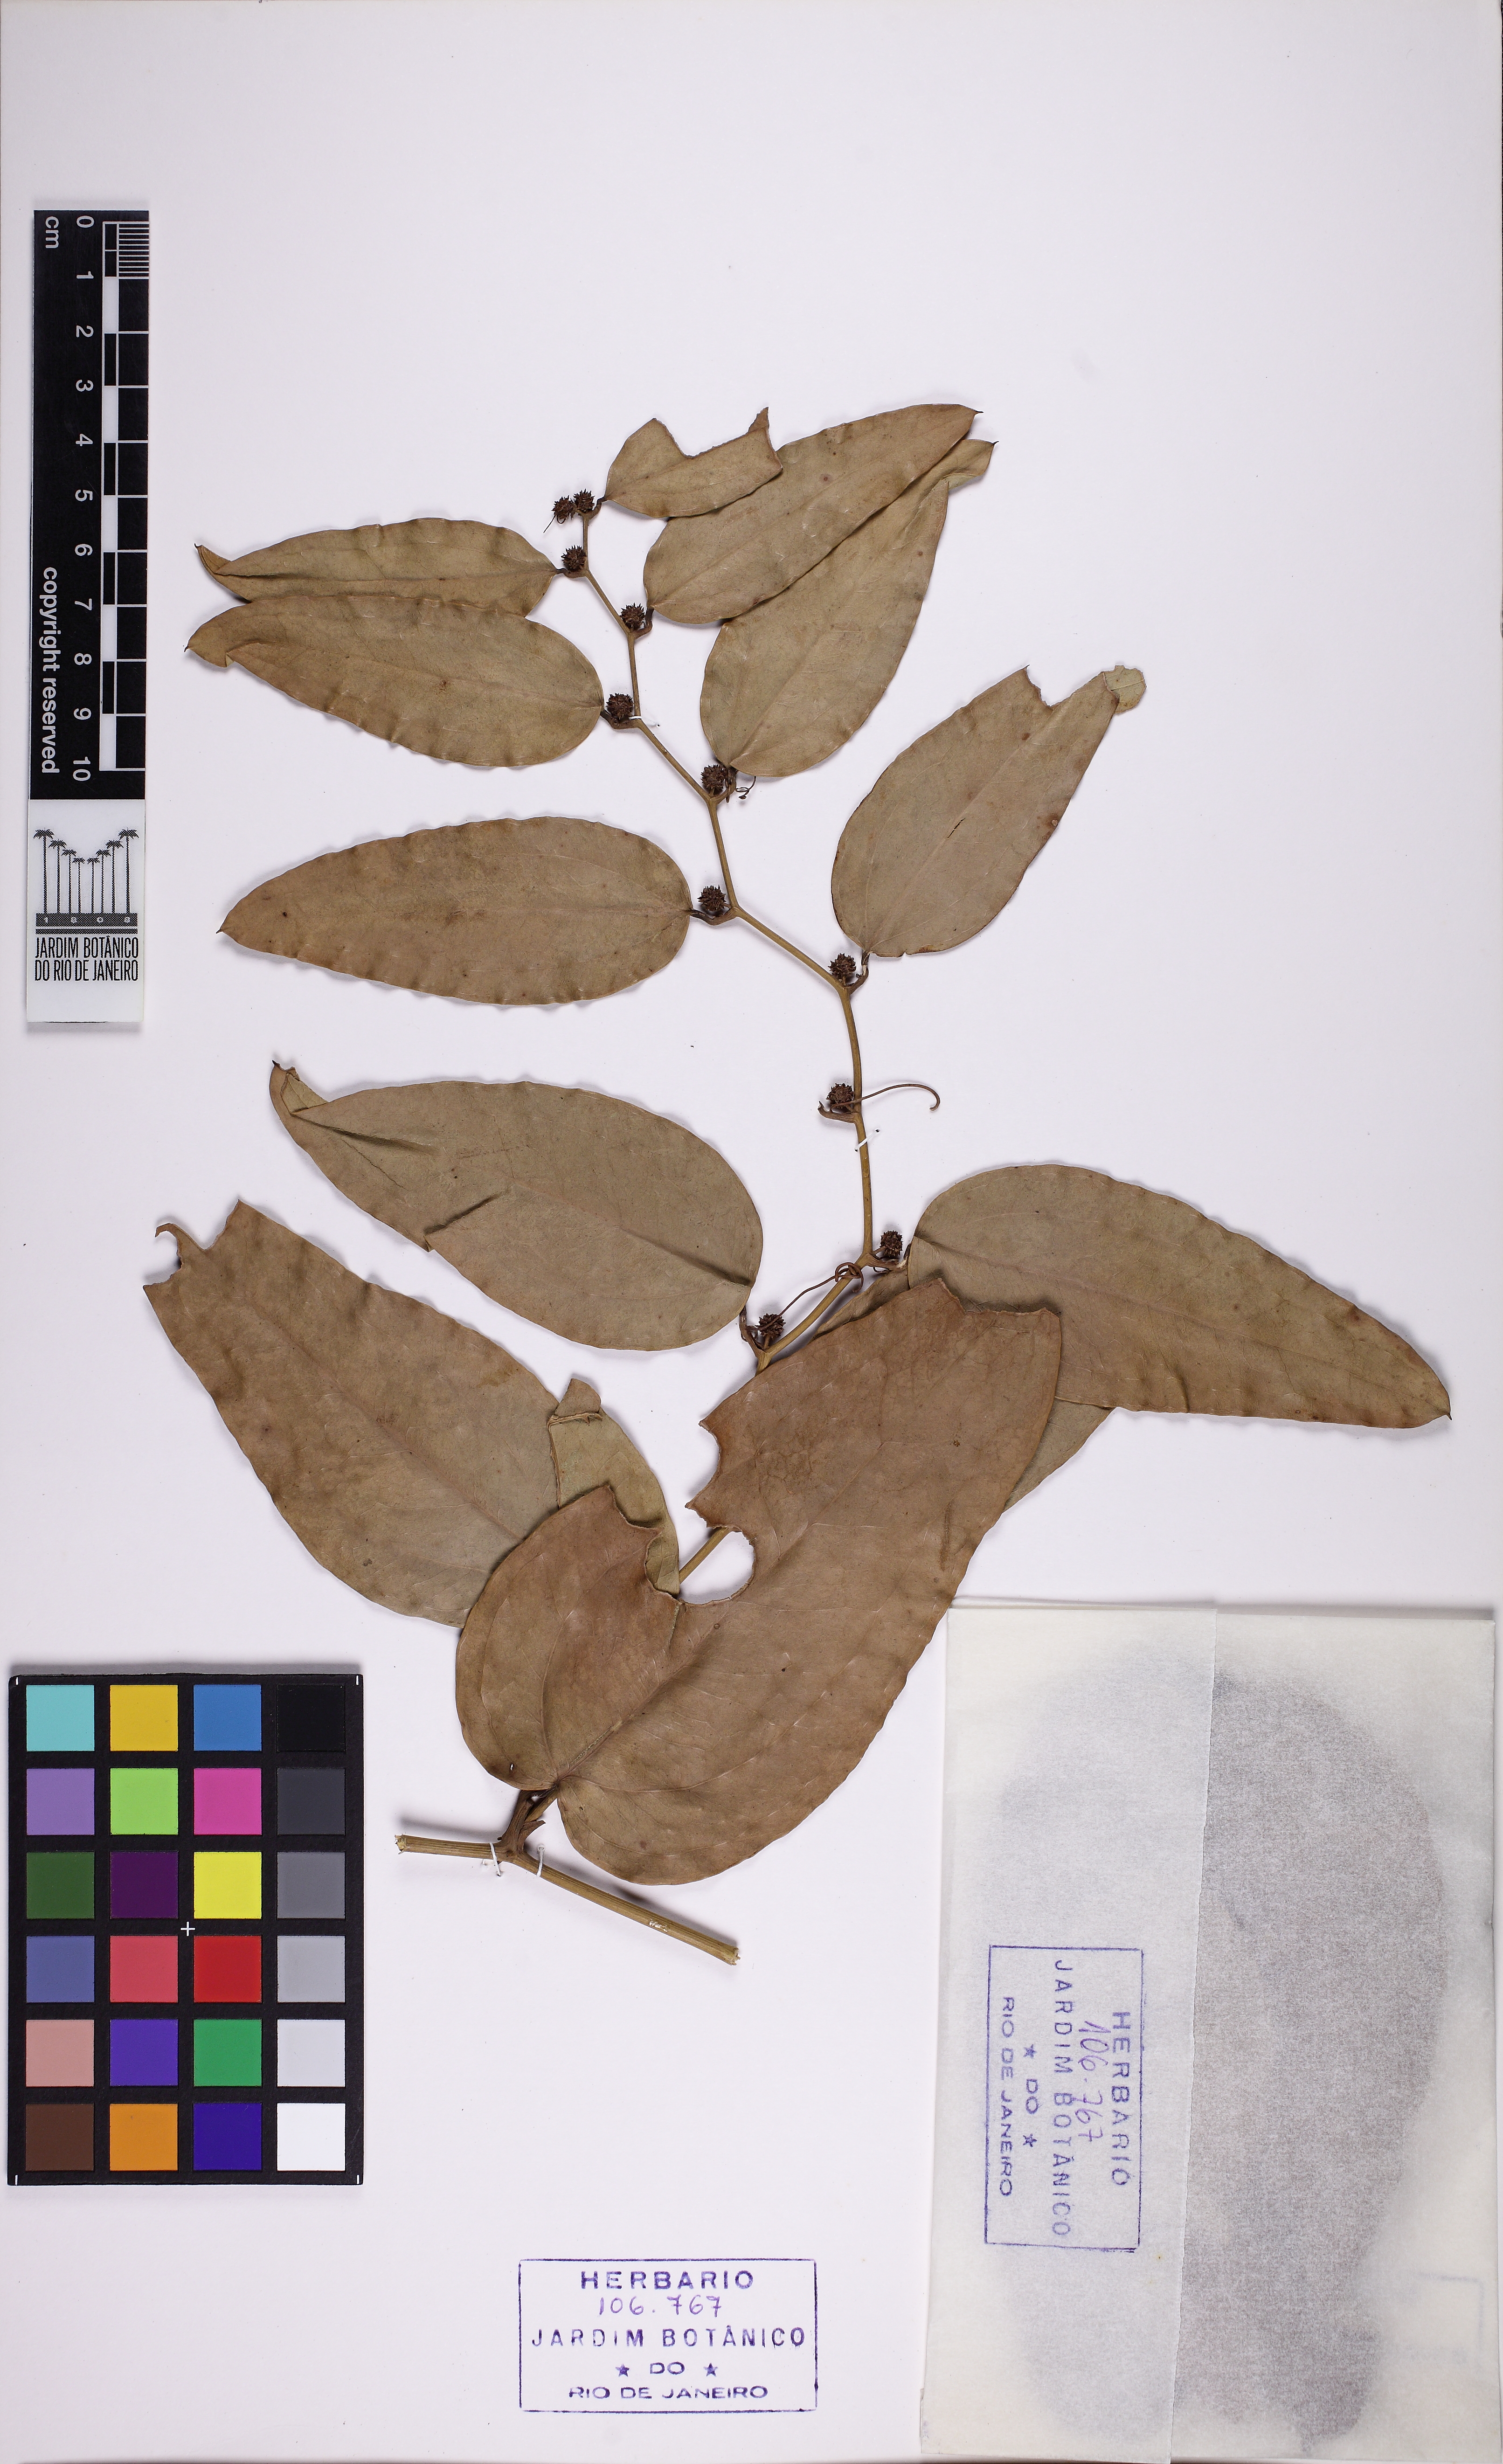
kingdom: Plantae
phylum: Tracheophyta
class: Liliopsida
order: Liliales
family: Smilacaceae
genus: Smilax
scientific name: Smilax elastica
